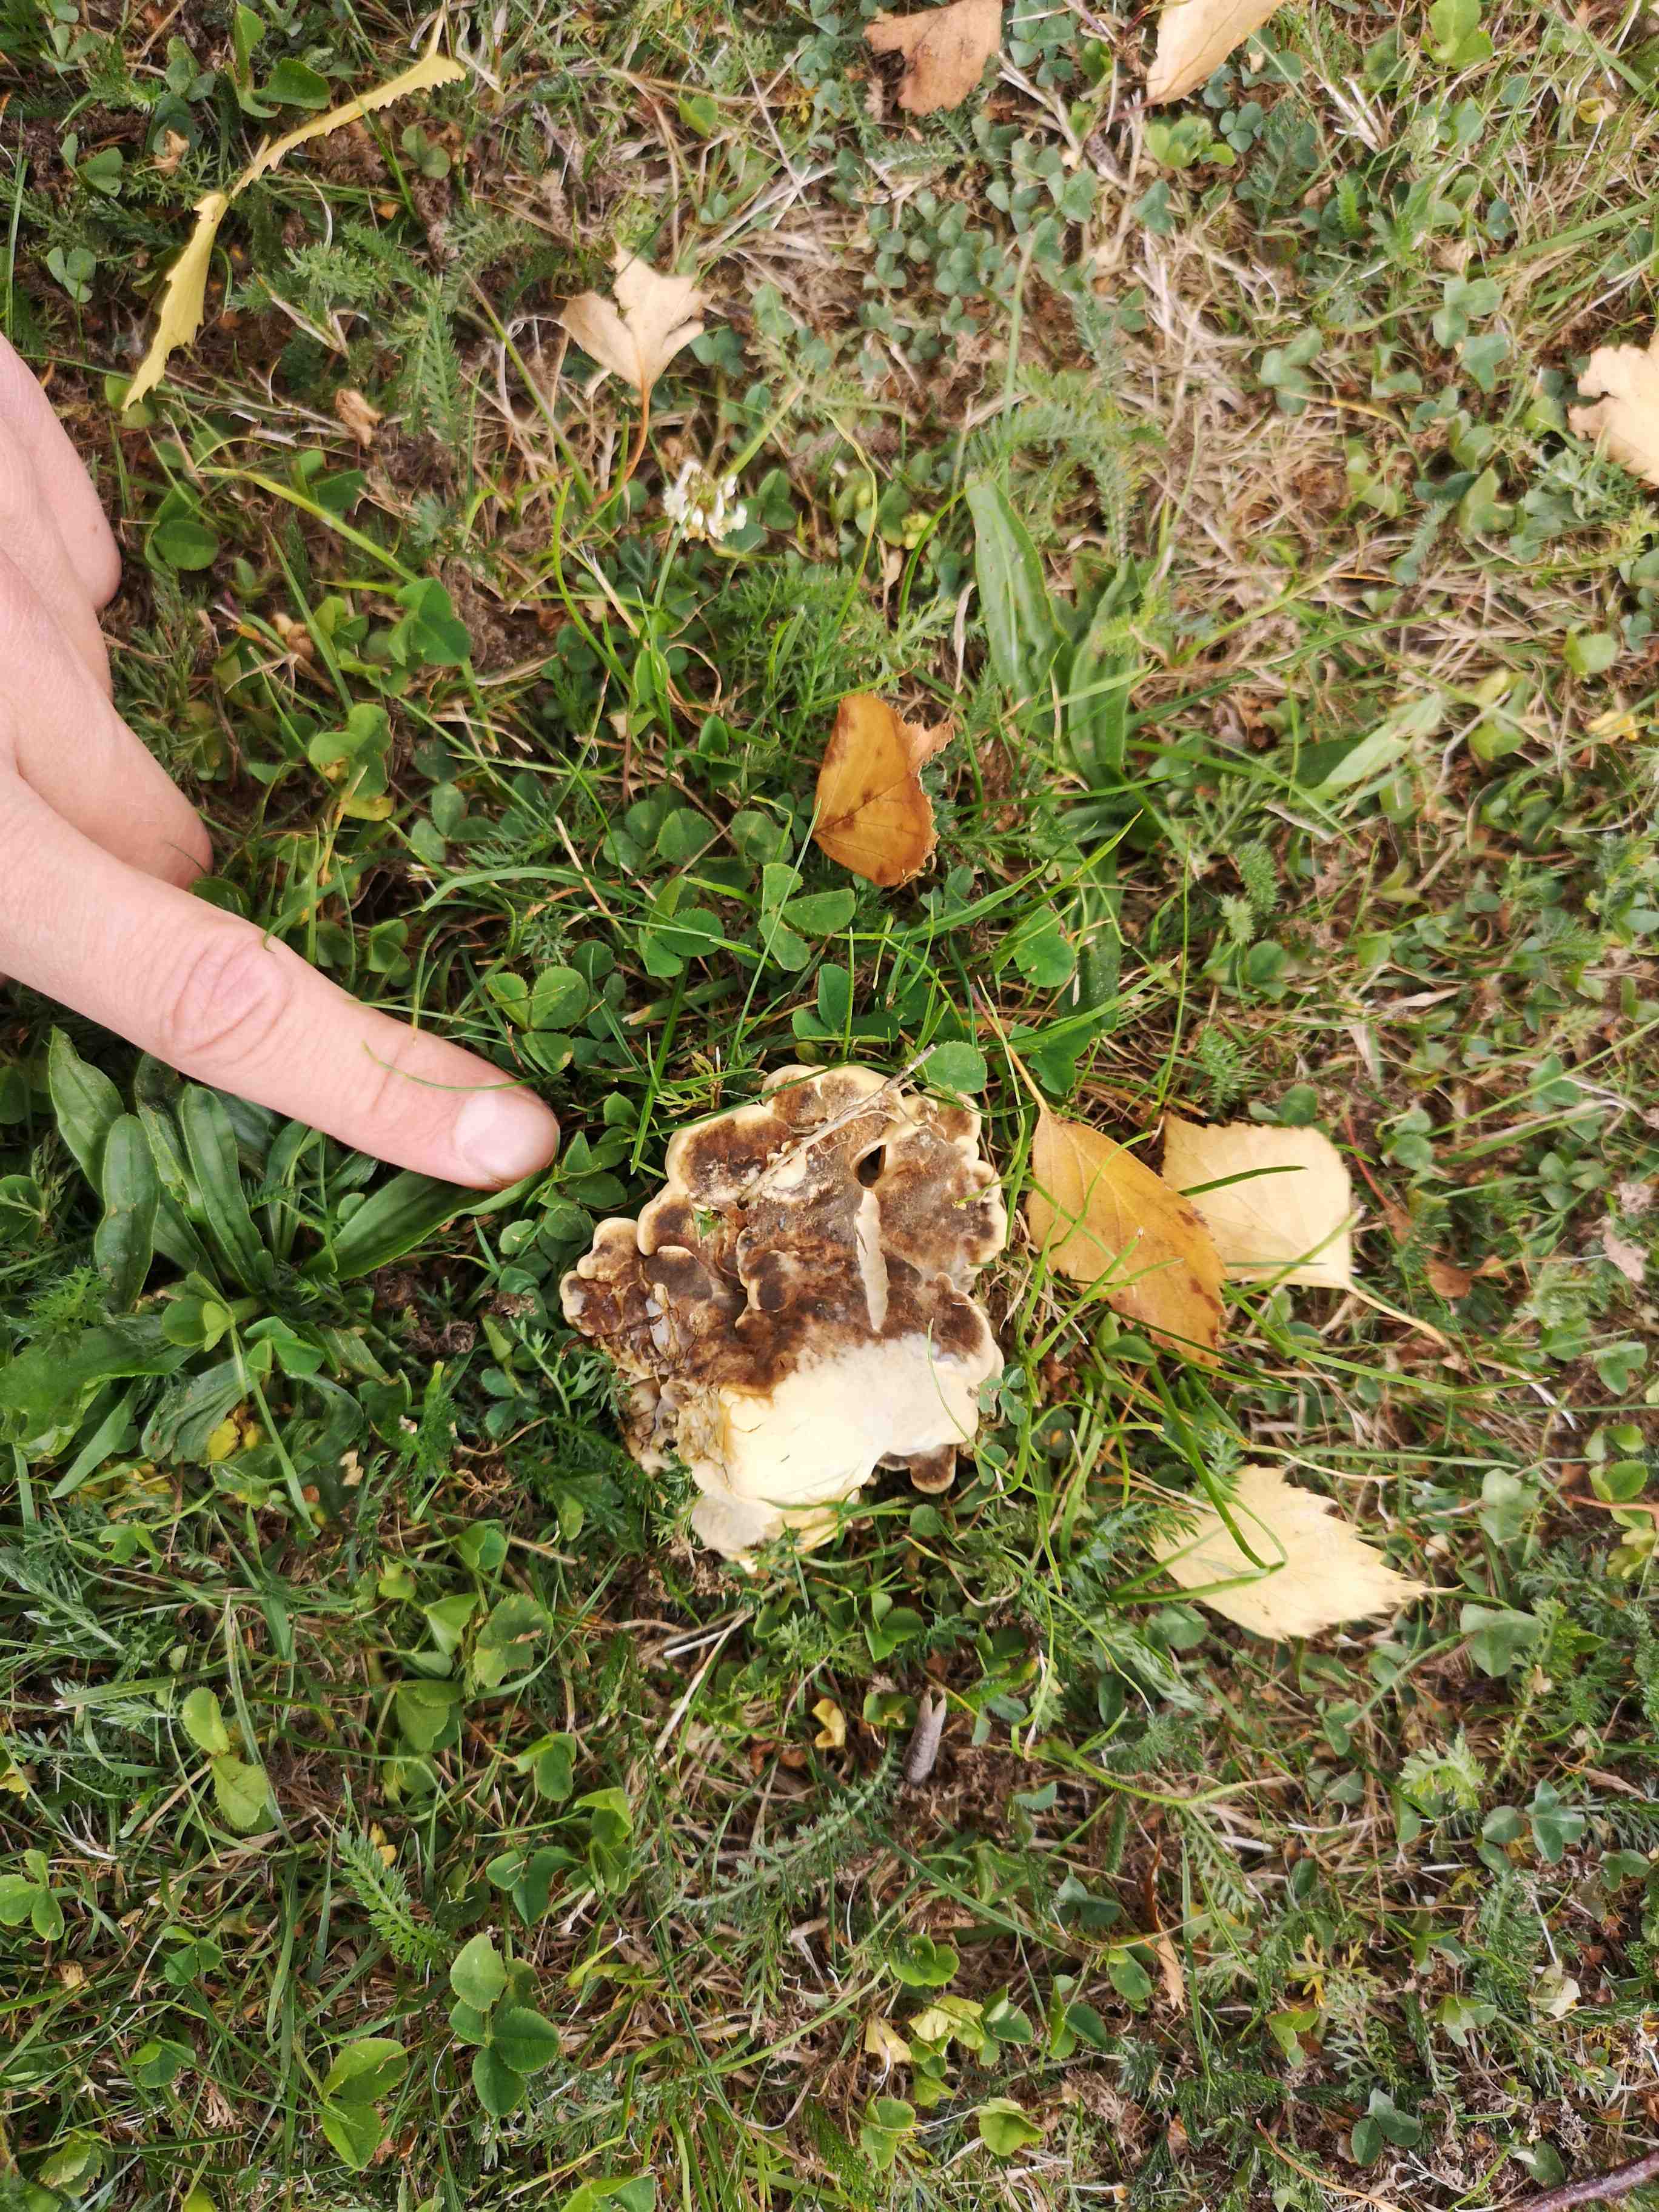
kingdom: Fungi
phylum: Basidiomycota
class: Agaricomycetes
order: Polyporales
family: Meripilaceae
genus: Meripilus
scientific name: Meripilus giganteus
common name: kæmpeporesvamp
